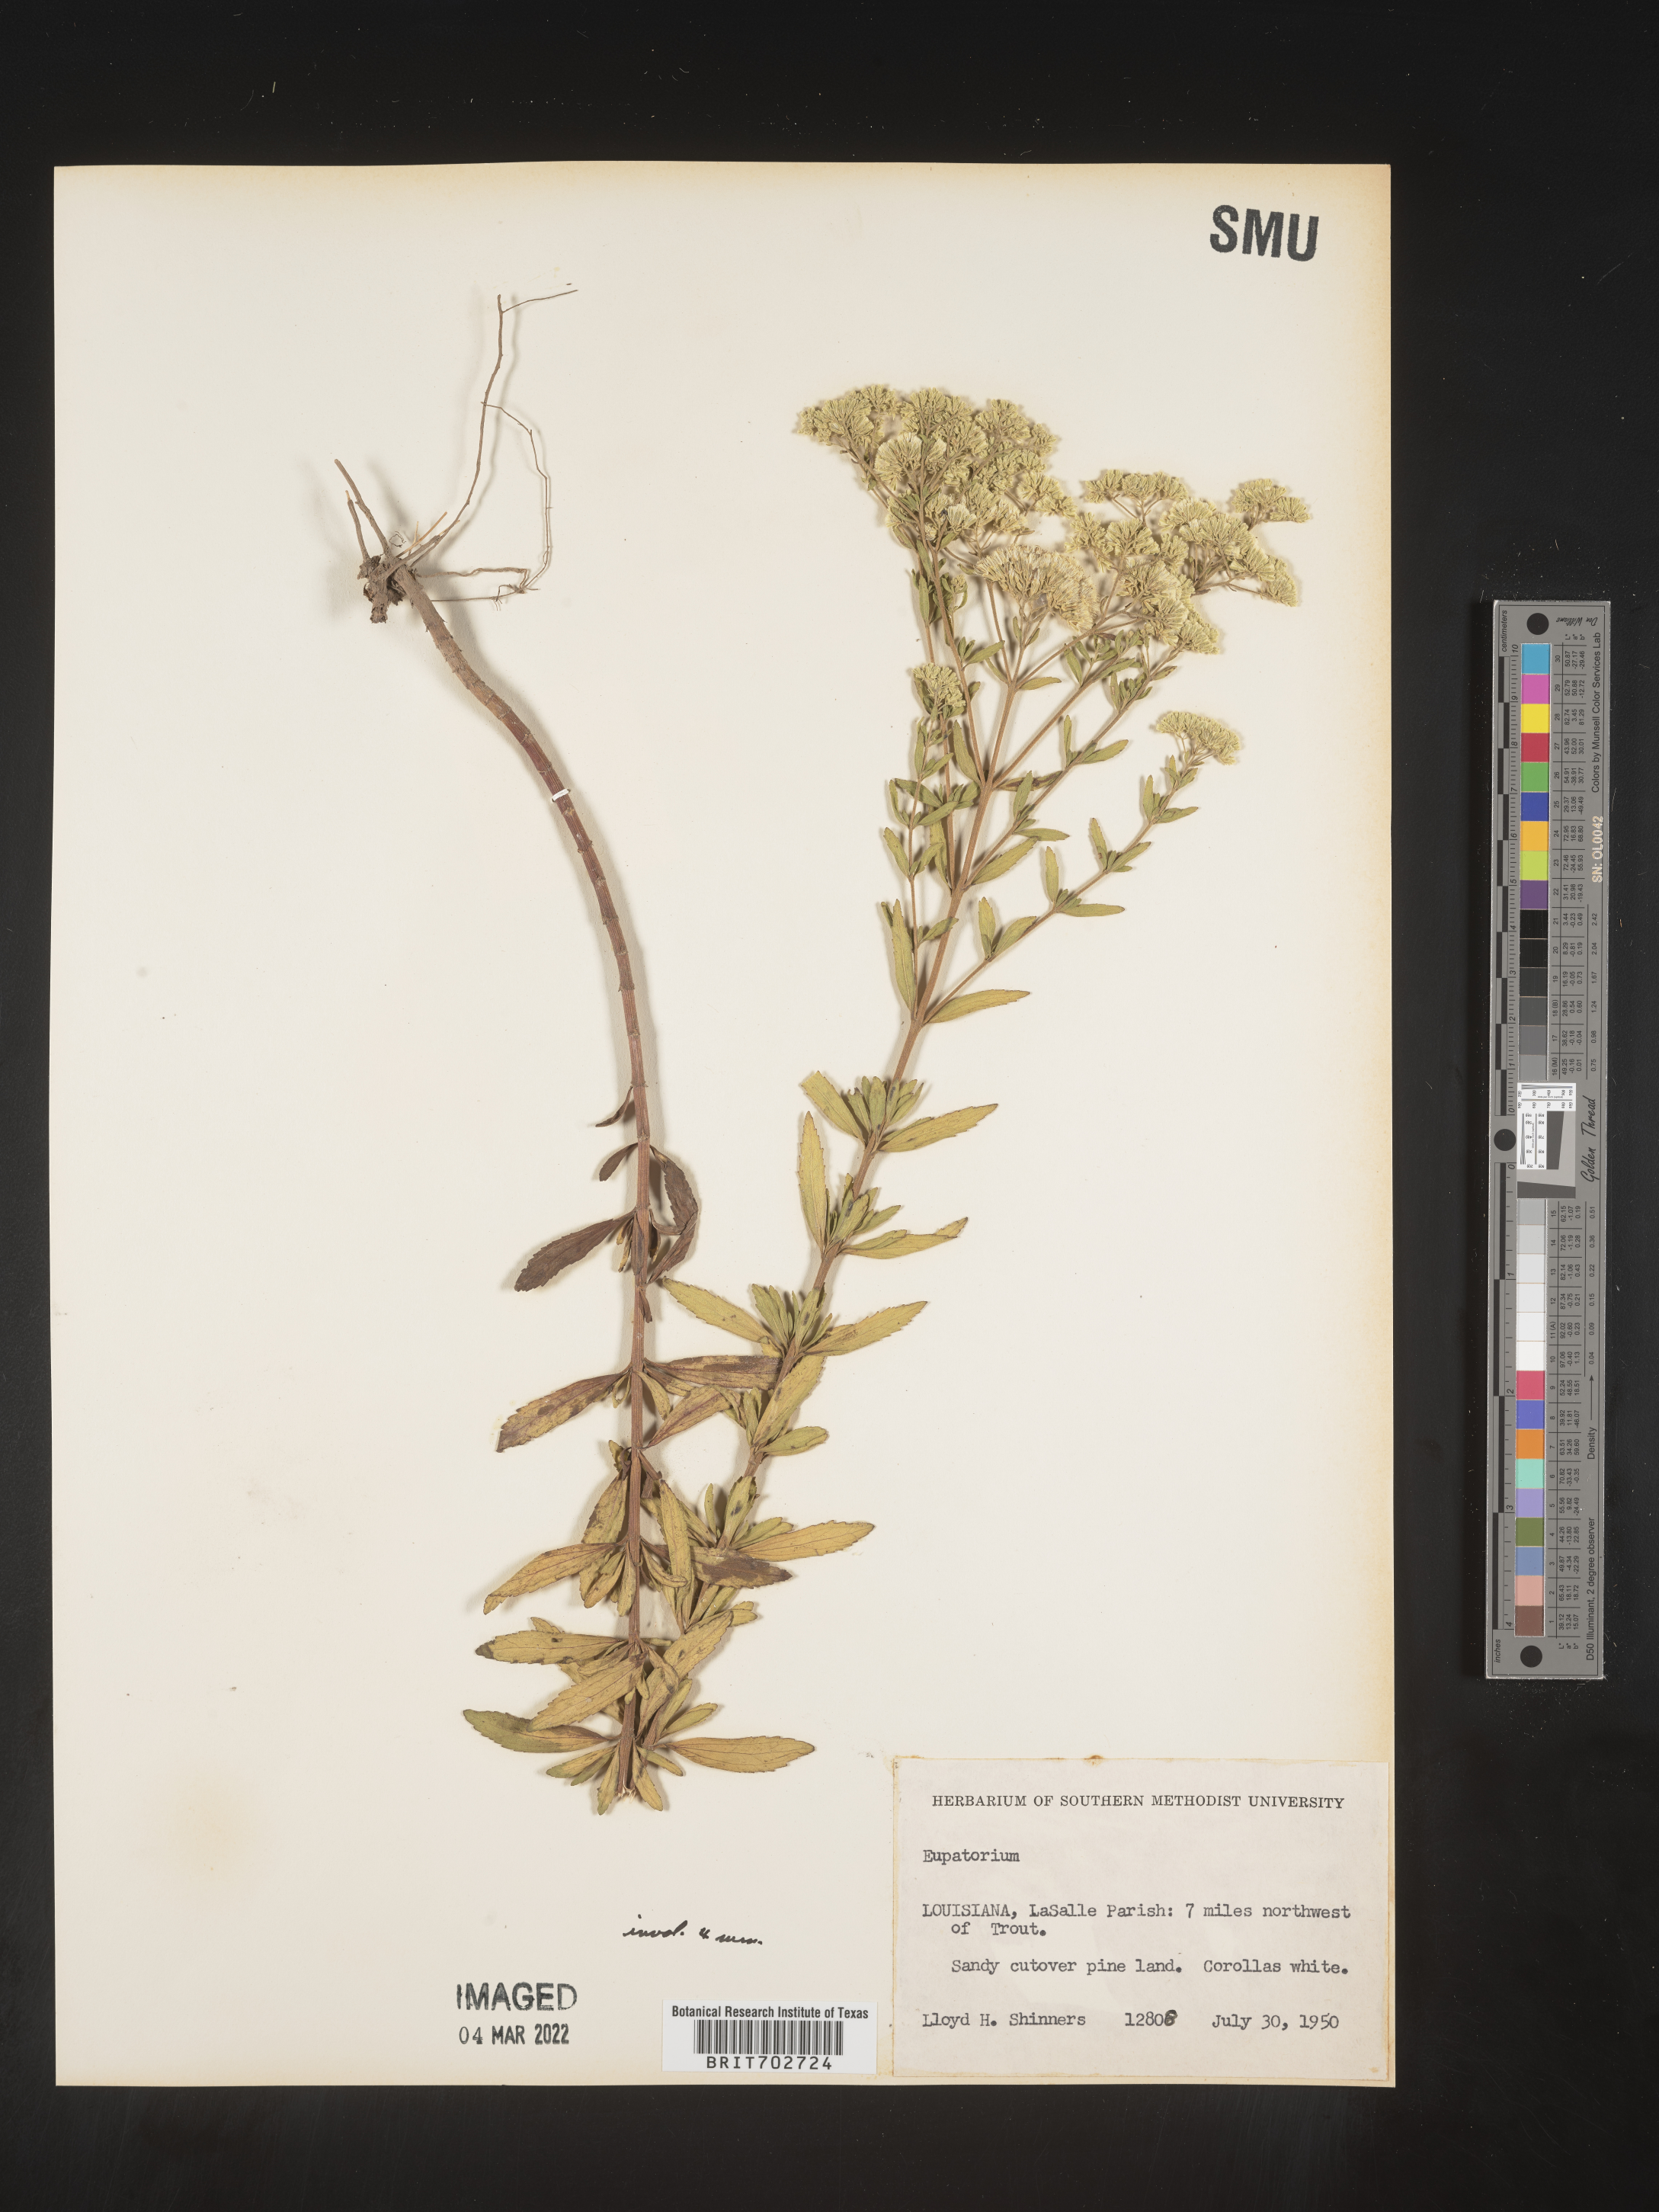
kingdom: Plantae
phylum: Tracheophyta
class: Magnoliopsida
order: Asterales
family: Asteraceae
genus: Eupatorium
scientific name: Eupatorium
